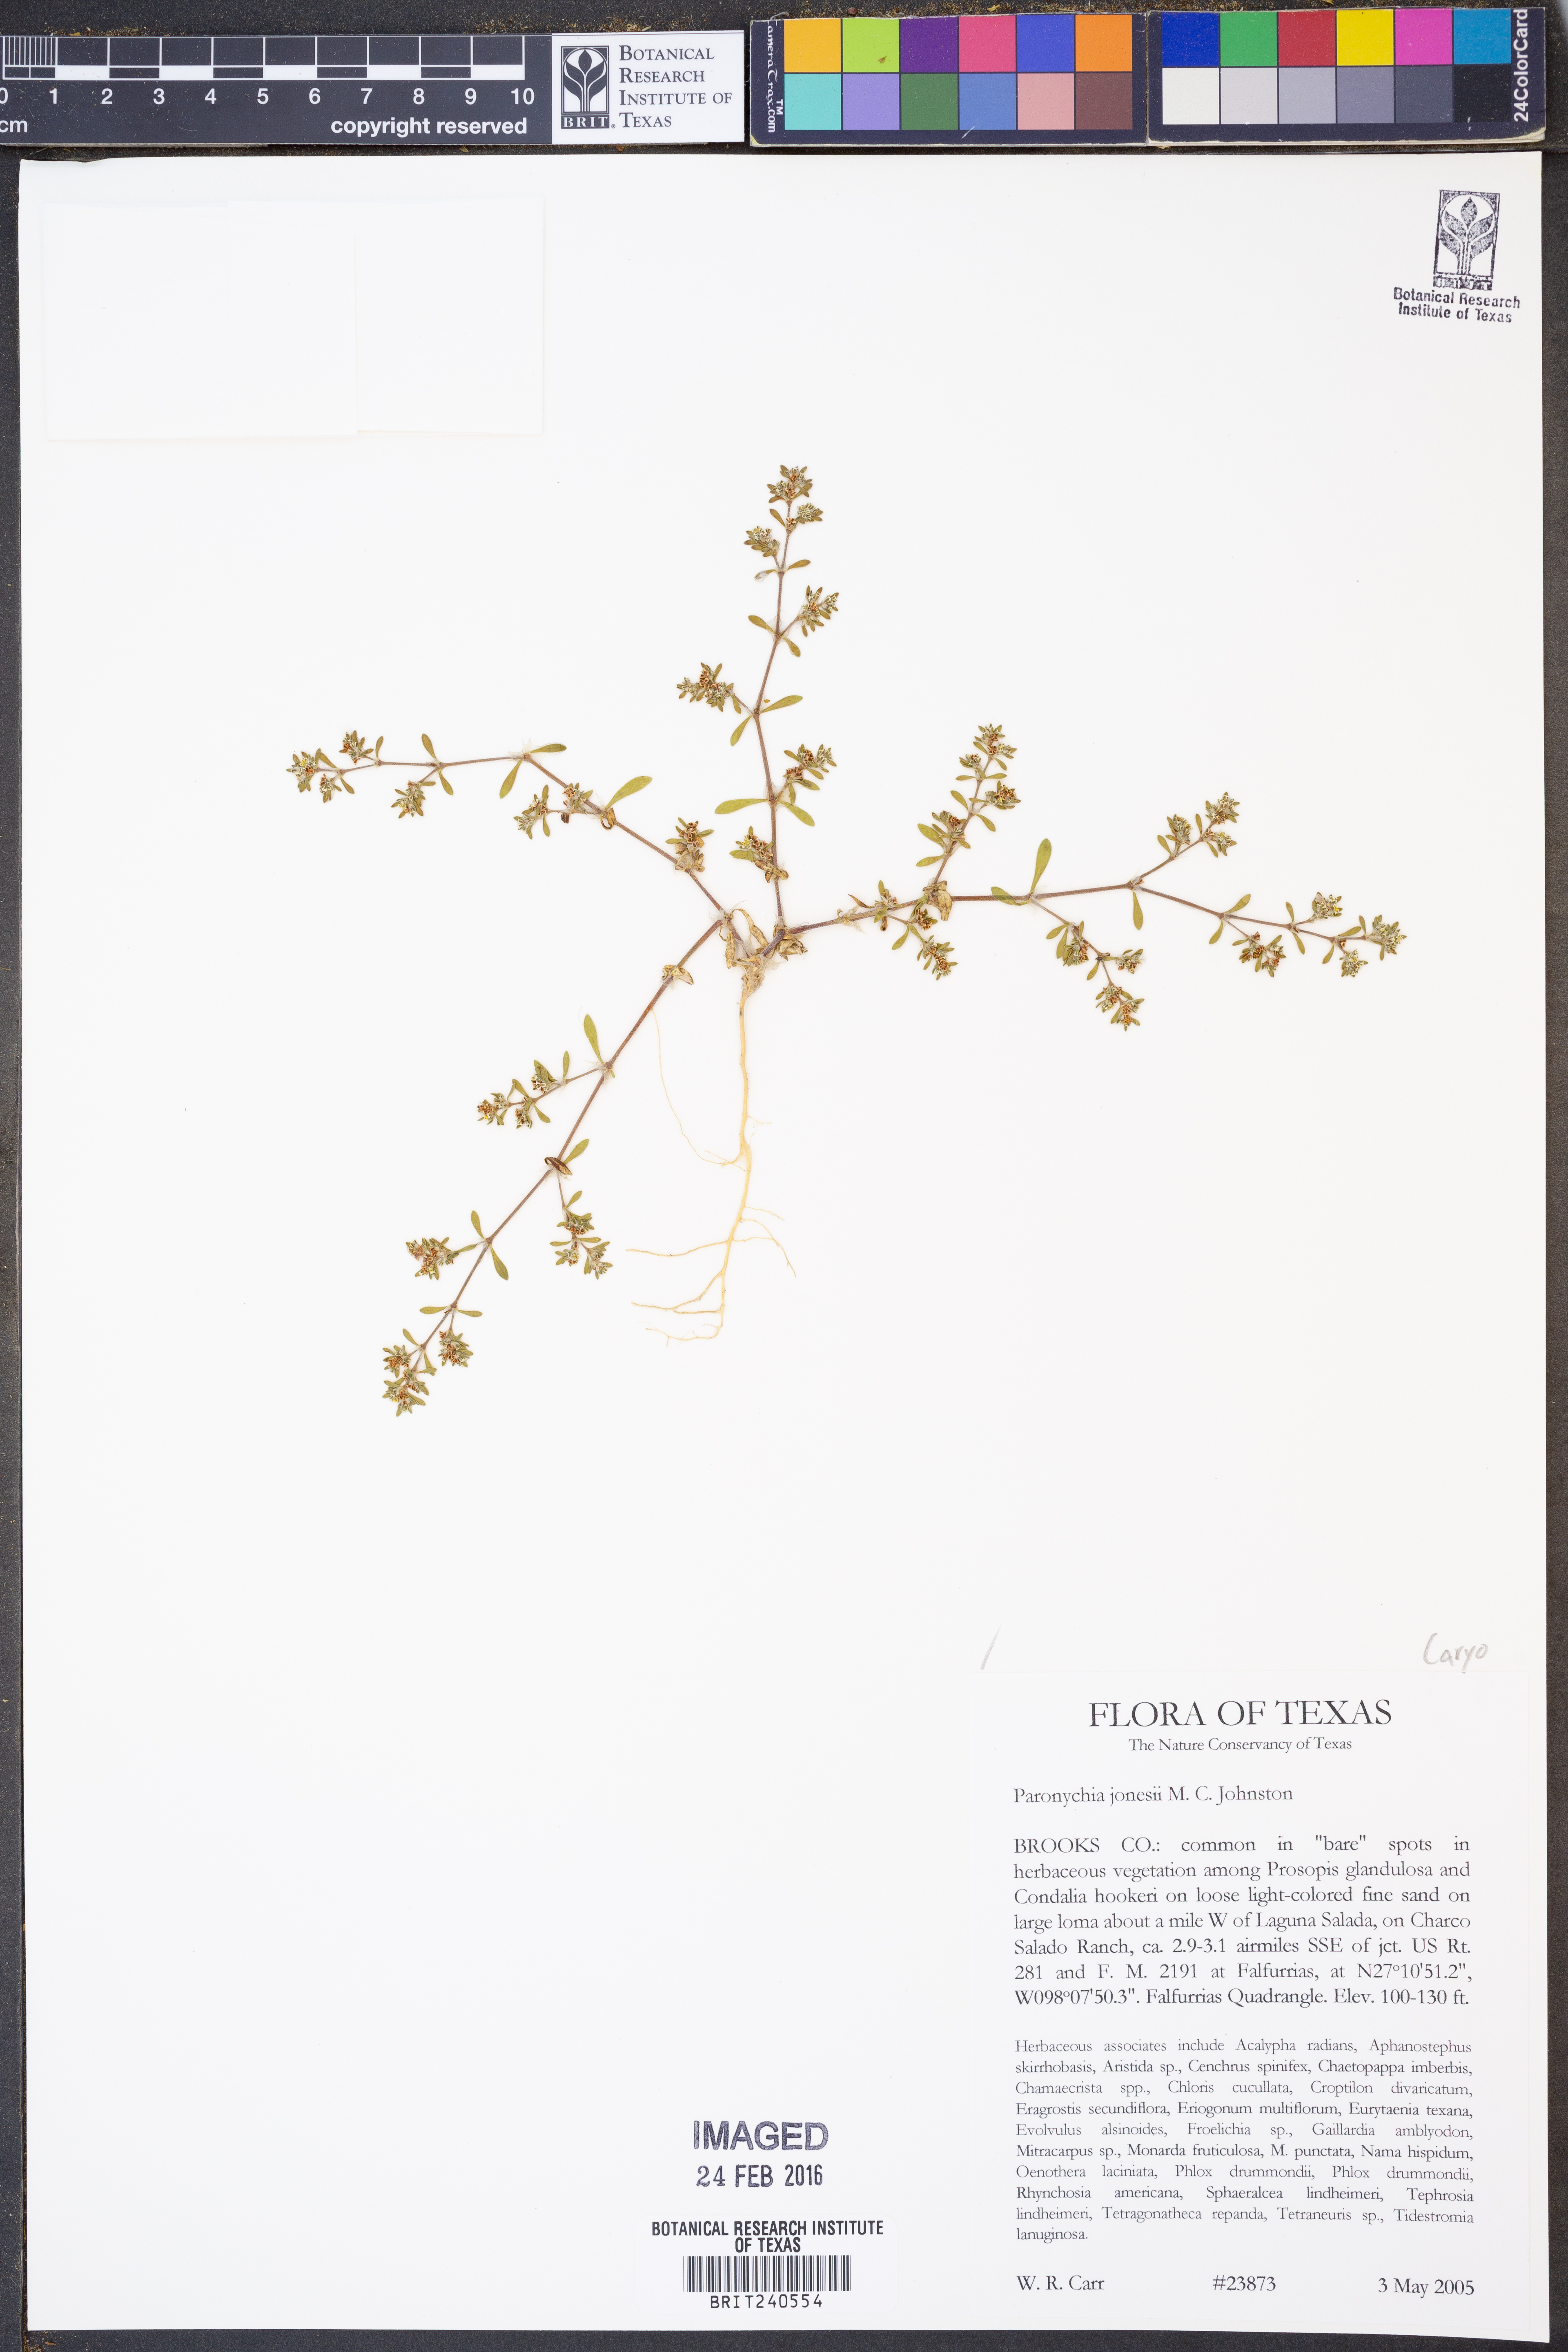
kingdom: Plantae
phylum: Tracheophyta
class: Magnoliopsida
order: Caryophyllales
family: Caryophyllaceae
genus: Paronychia
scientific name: Paronychia jonesii
